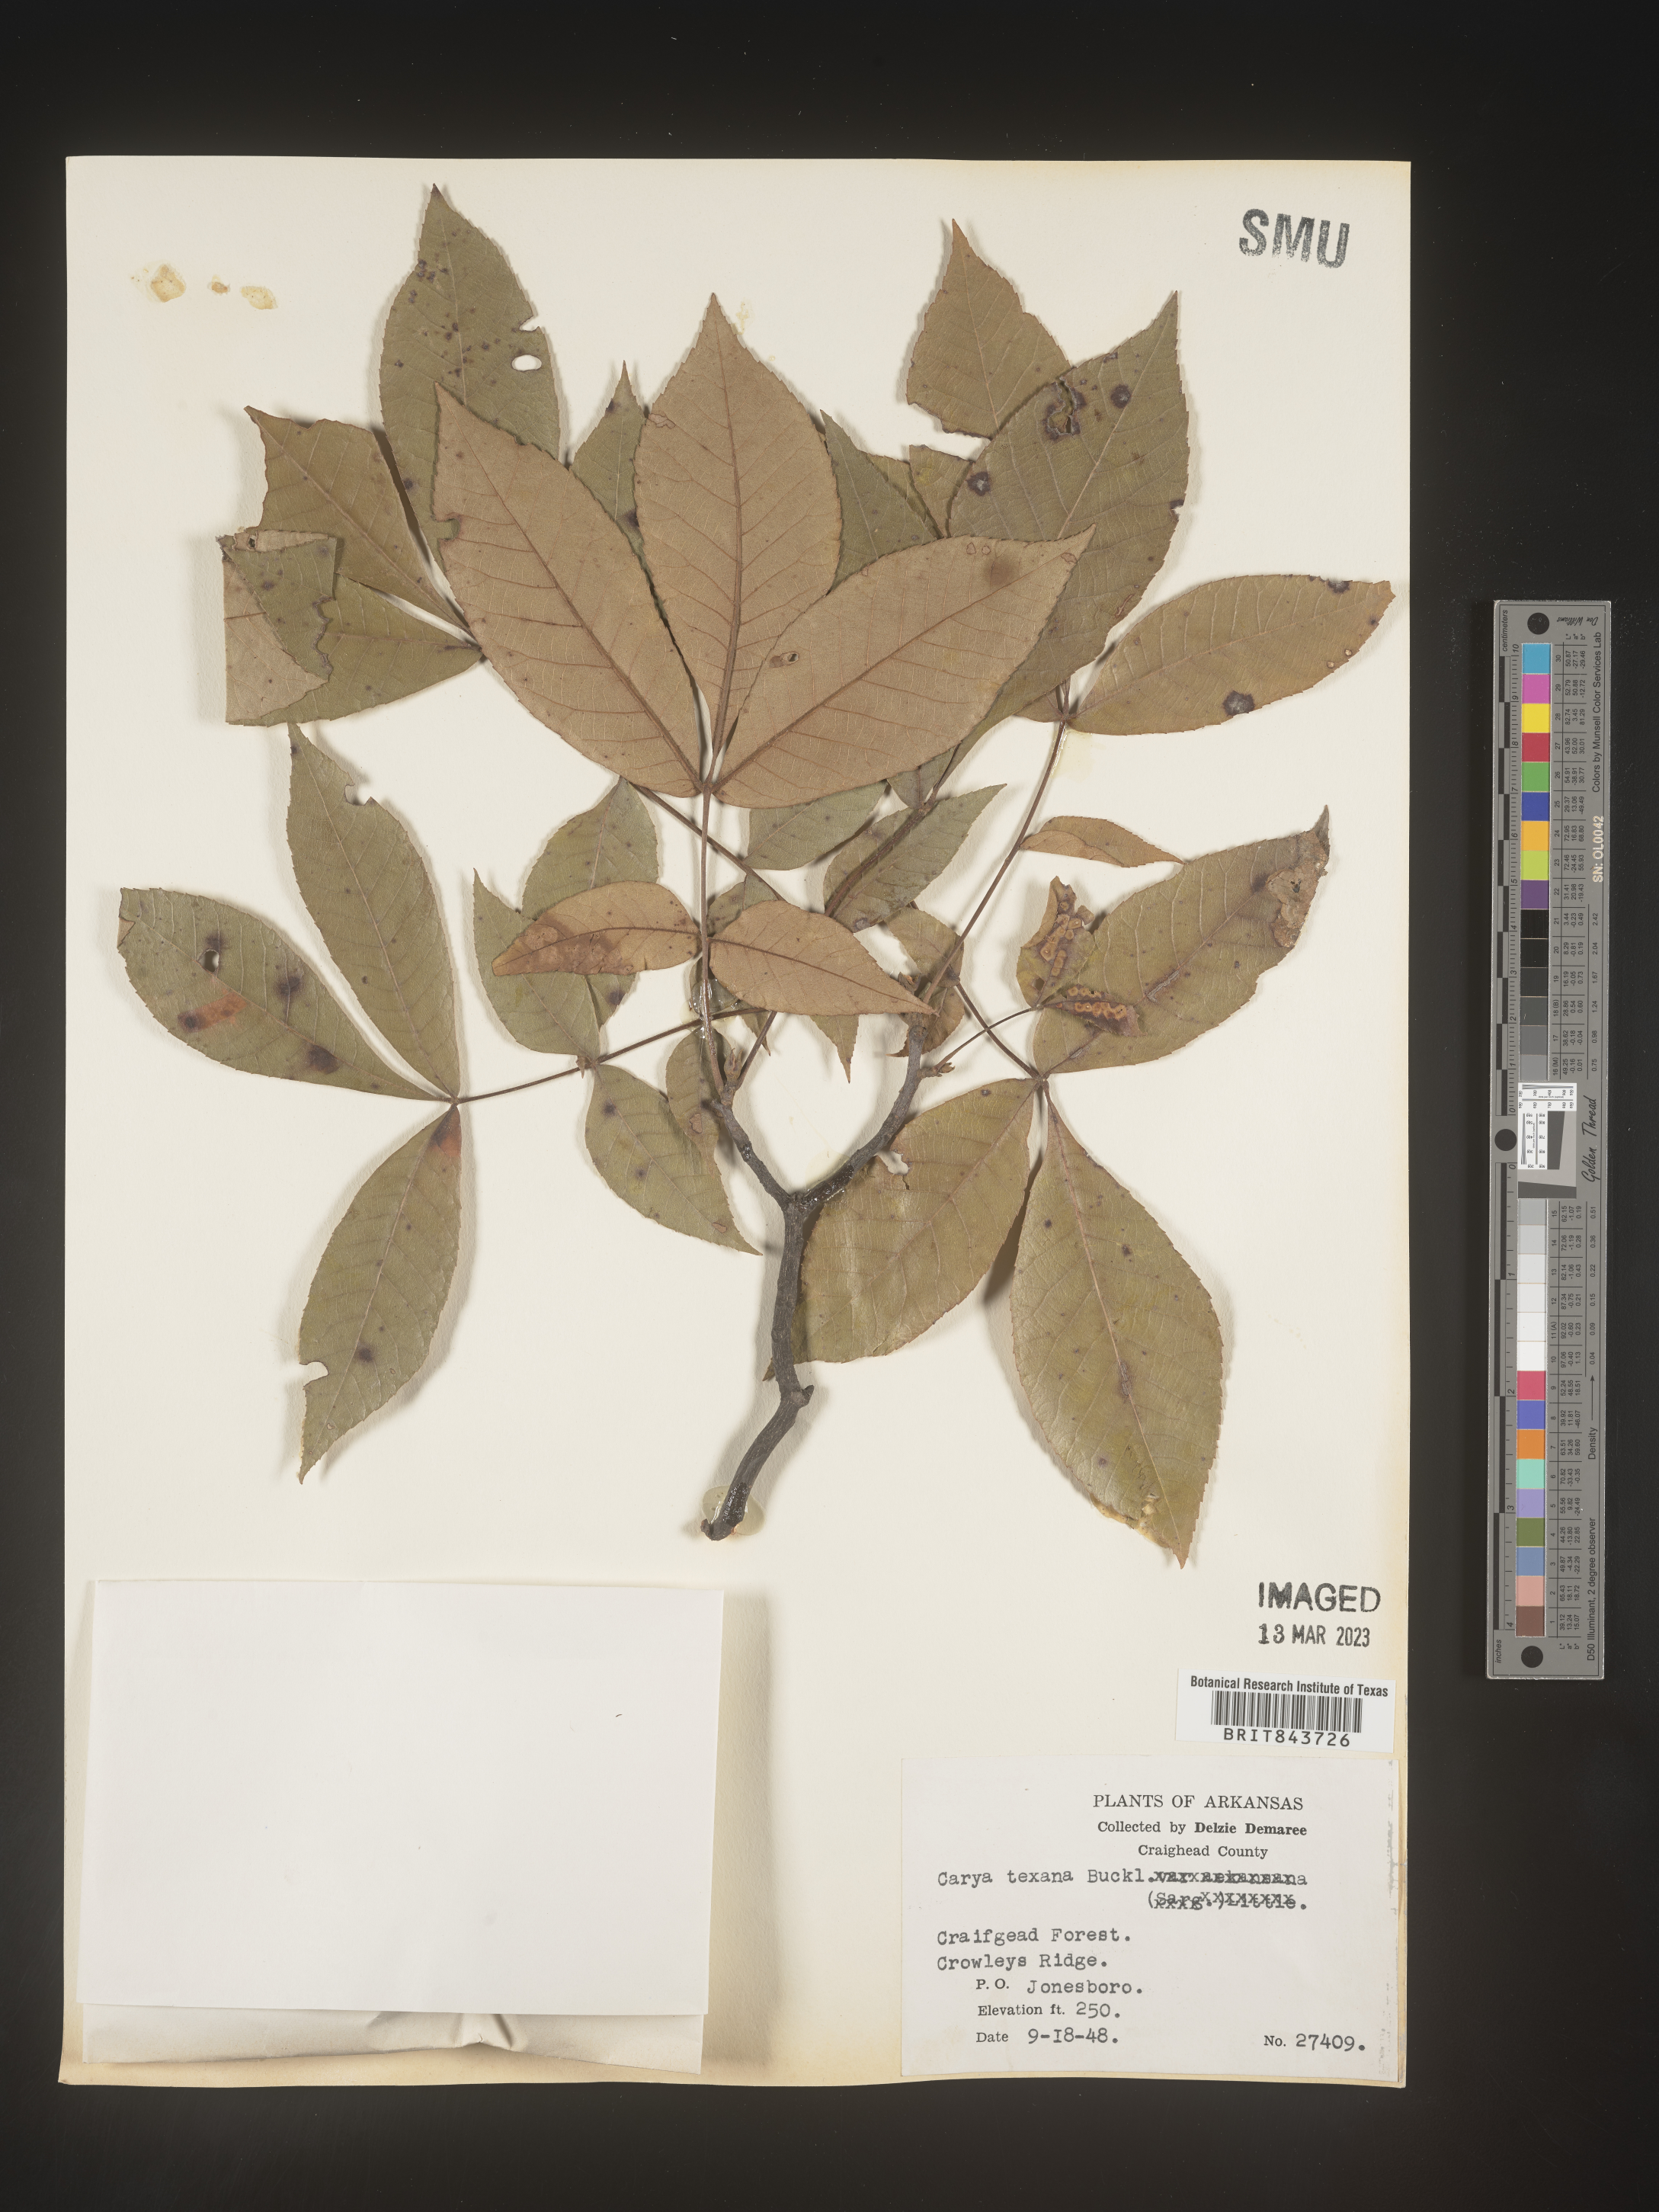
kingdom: Plantae
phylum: Tracheophyta
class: Magnoliopsida
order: Fagales
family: Juglandaceae
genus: Carya
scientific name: Carya texana
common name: Black hickory
